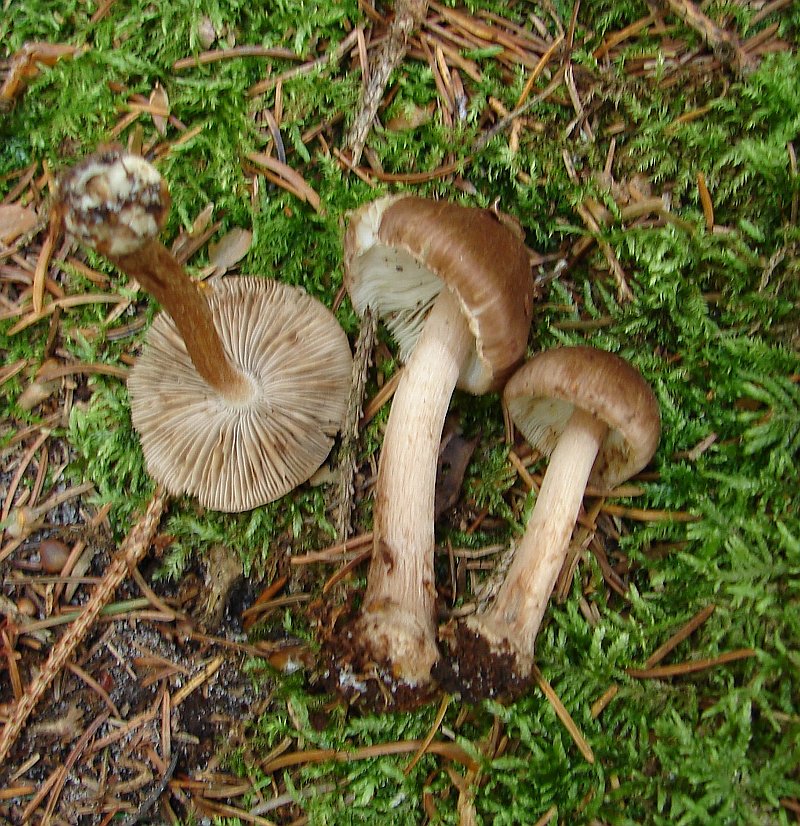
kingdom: Fungi
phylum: Basidiomycota
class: Agaricomycetes
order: Agaricales
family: Inocybaceae
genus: Inocybe
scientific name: Inocybe napipes
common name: roeknoldet trævlhat
